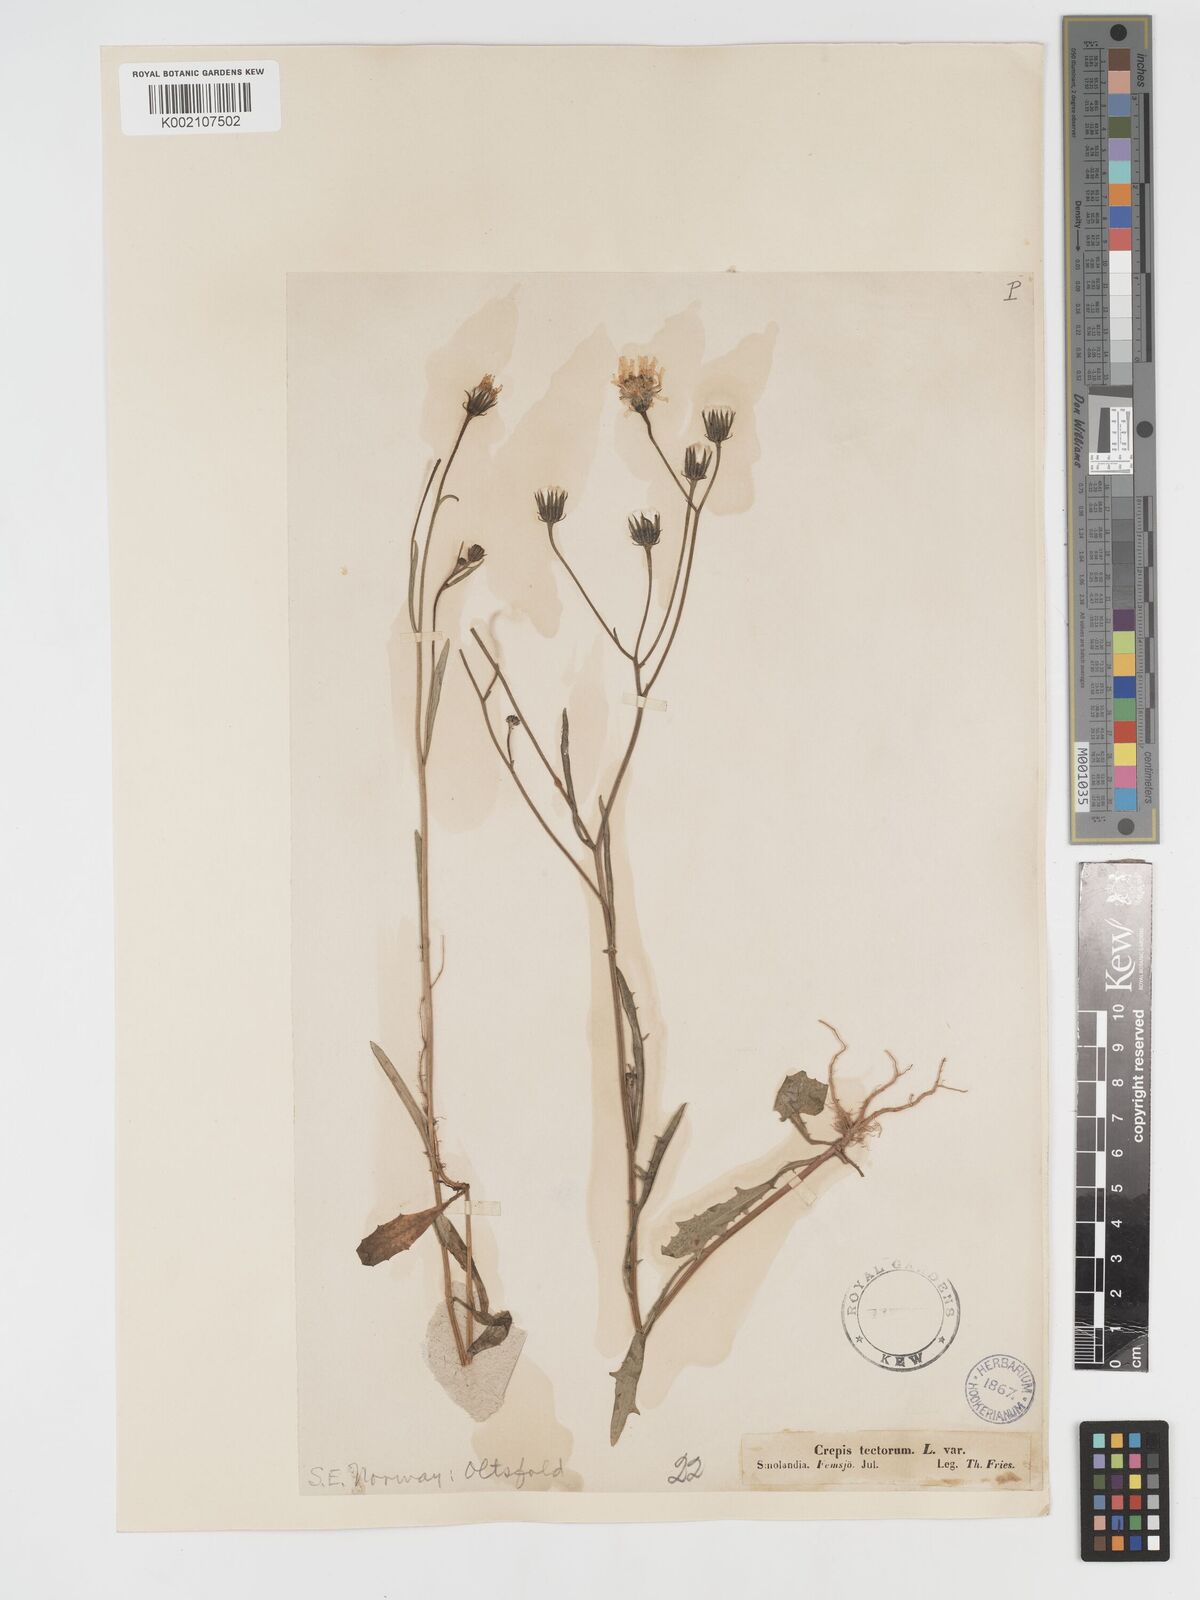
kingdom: Plantae
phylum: Tracheophyta
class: Magnoliopsida
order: Asterales
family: Asteraceae
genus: Crepis
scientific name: Crepis tectorum
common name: Narrow-leaved hawk's-beard
